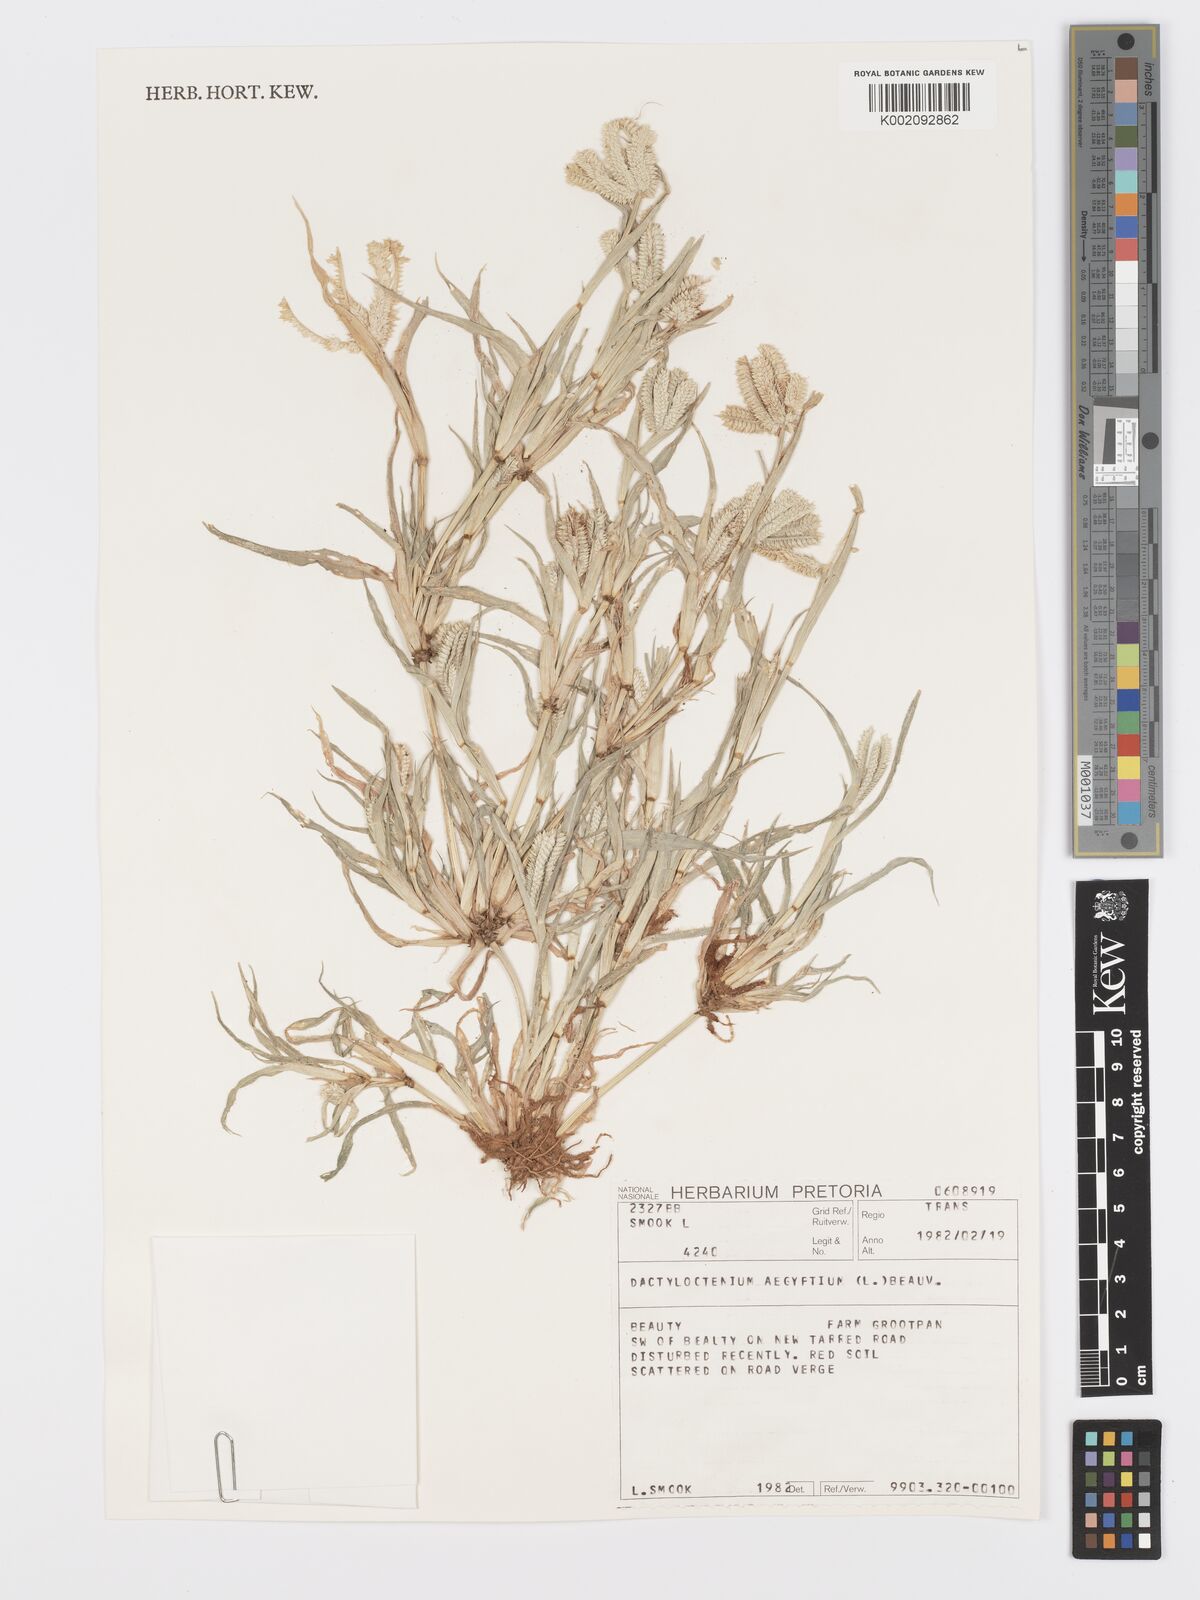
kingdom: Plantae
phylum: Tracheophyta
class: Liliopsida
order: Poales
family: Poaceae
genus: Dactyloctenium
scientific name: Dactyloctenium aegyptium
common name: Egyptian grass
